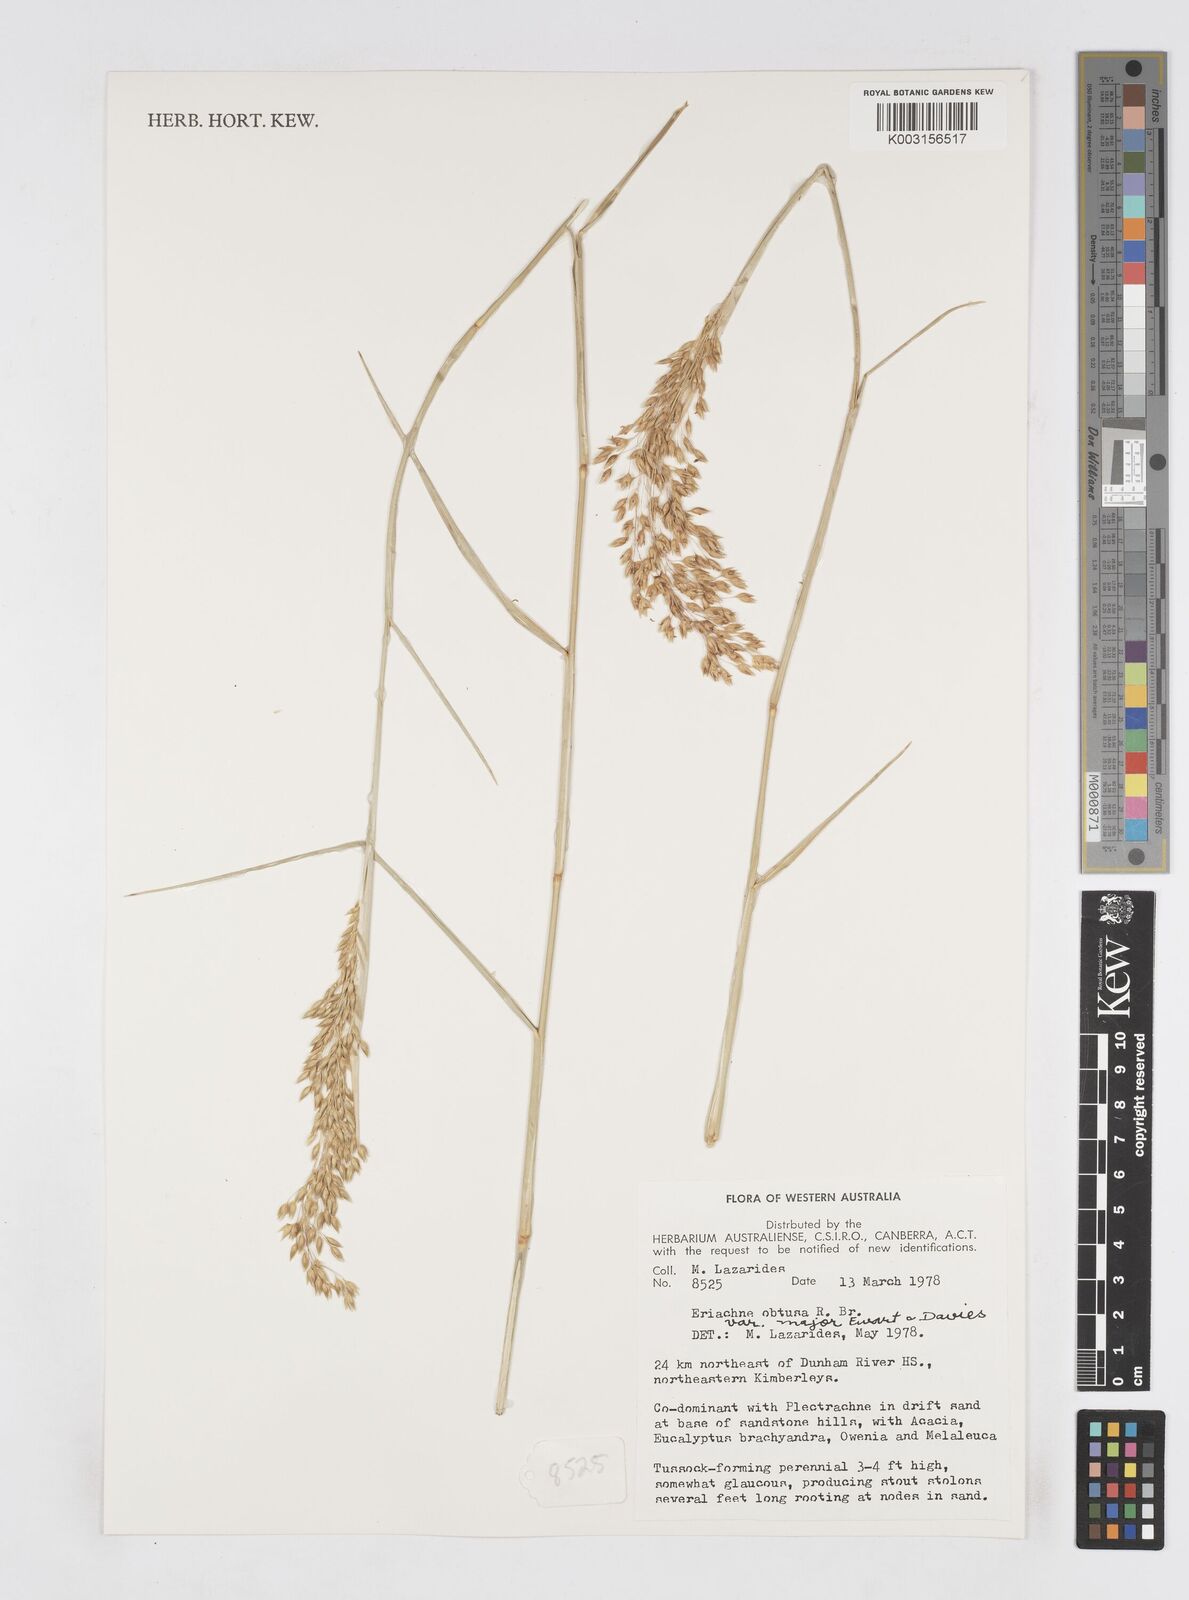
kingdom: Plantae
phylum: Tracheophyta
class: Liliopsida
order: Poales
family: Poaceae
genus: Eriachne
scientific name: Eriachne obtusa
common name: Northern wanderrie grass
